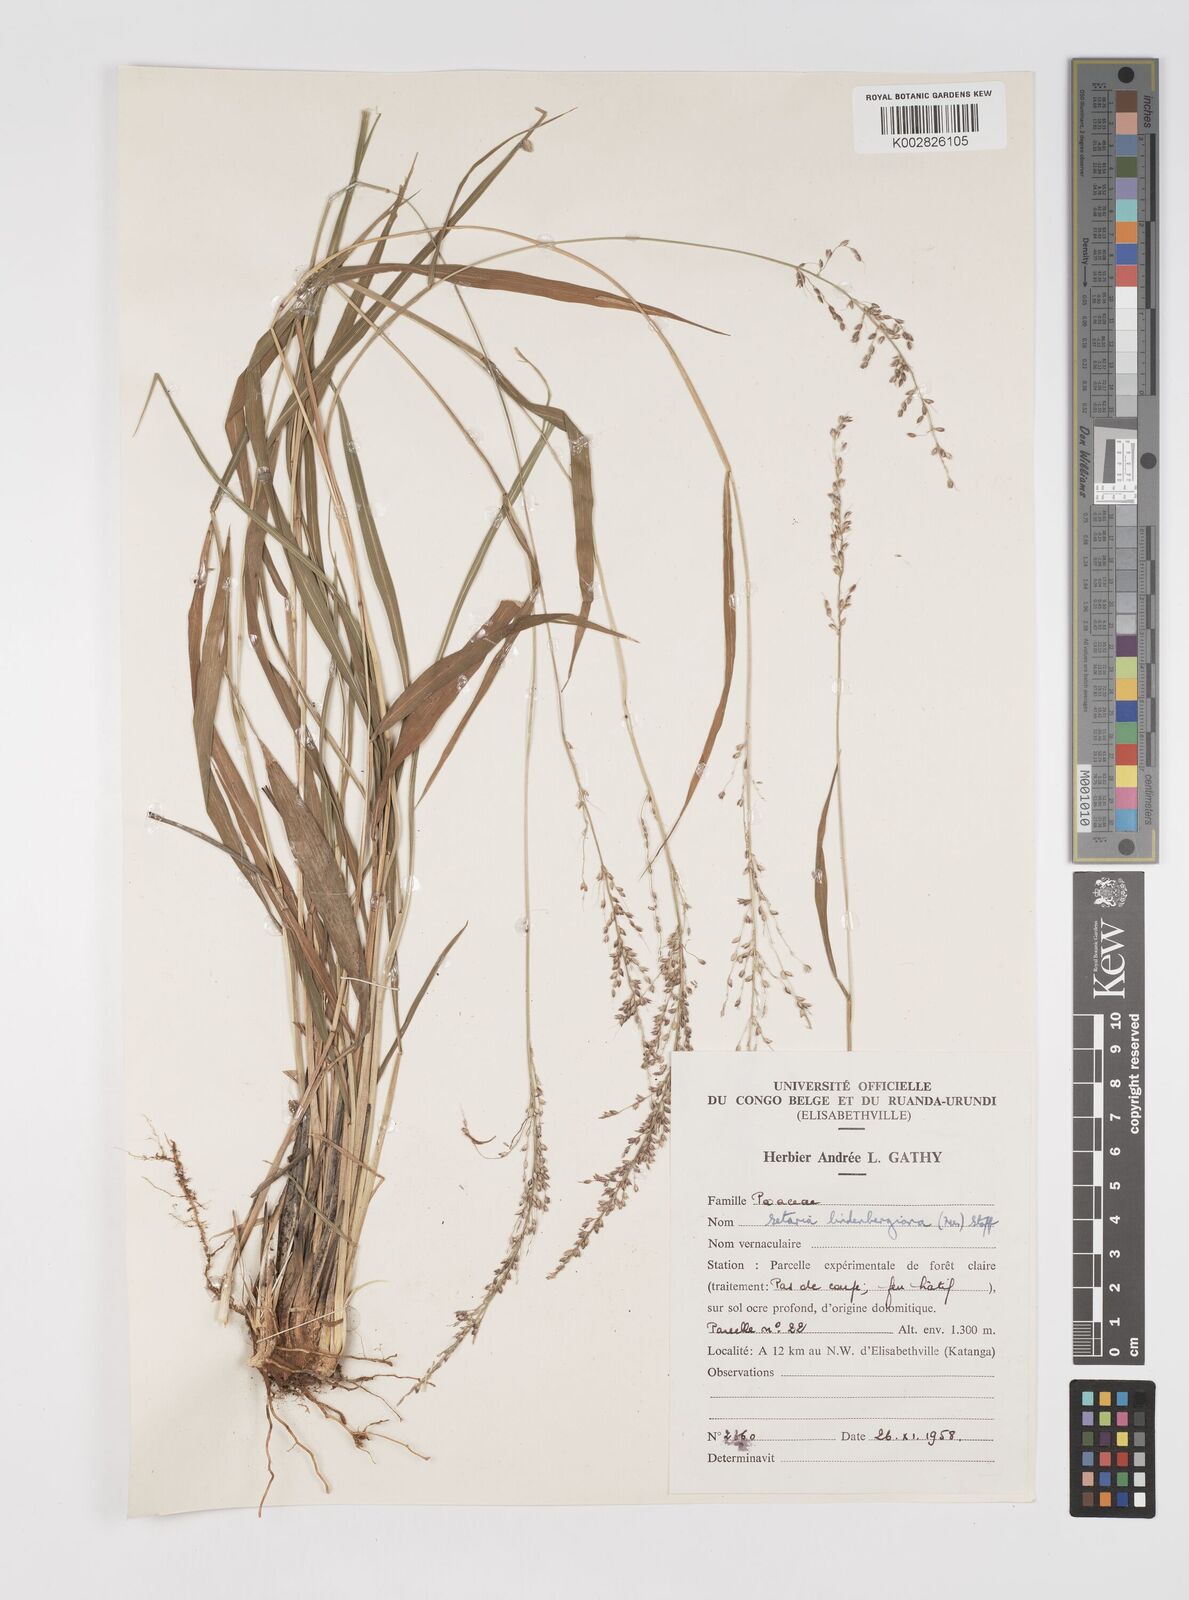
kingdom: Plantae
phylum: Tracheophyta
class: Liliopsida
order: Poales
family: Poaceae
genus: Setaria
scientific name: Setaria lindenbergiana
